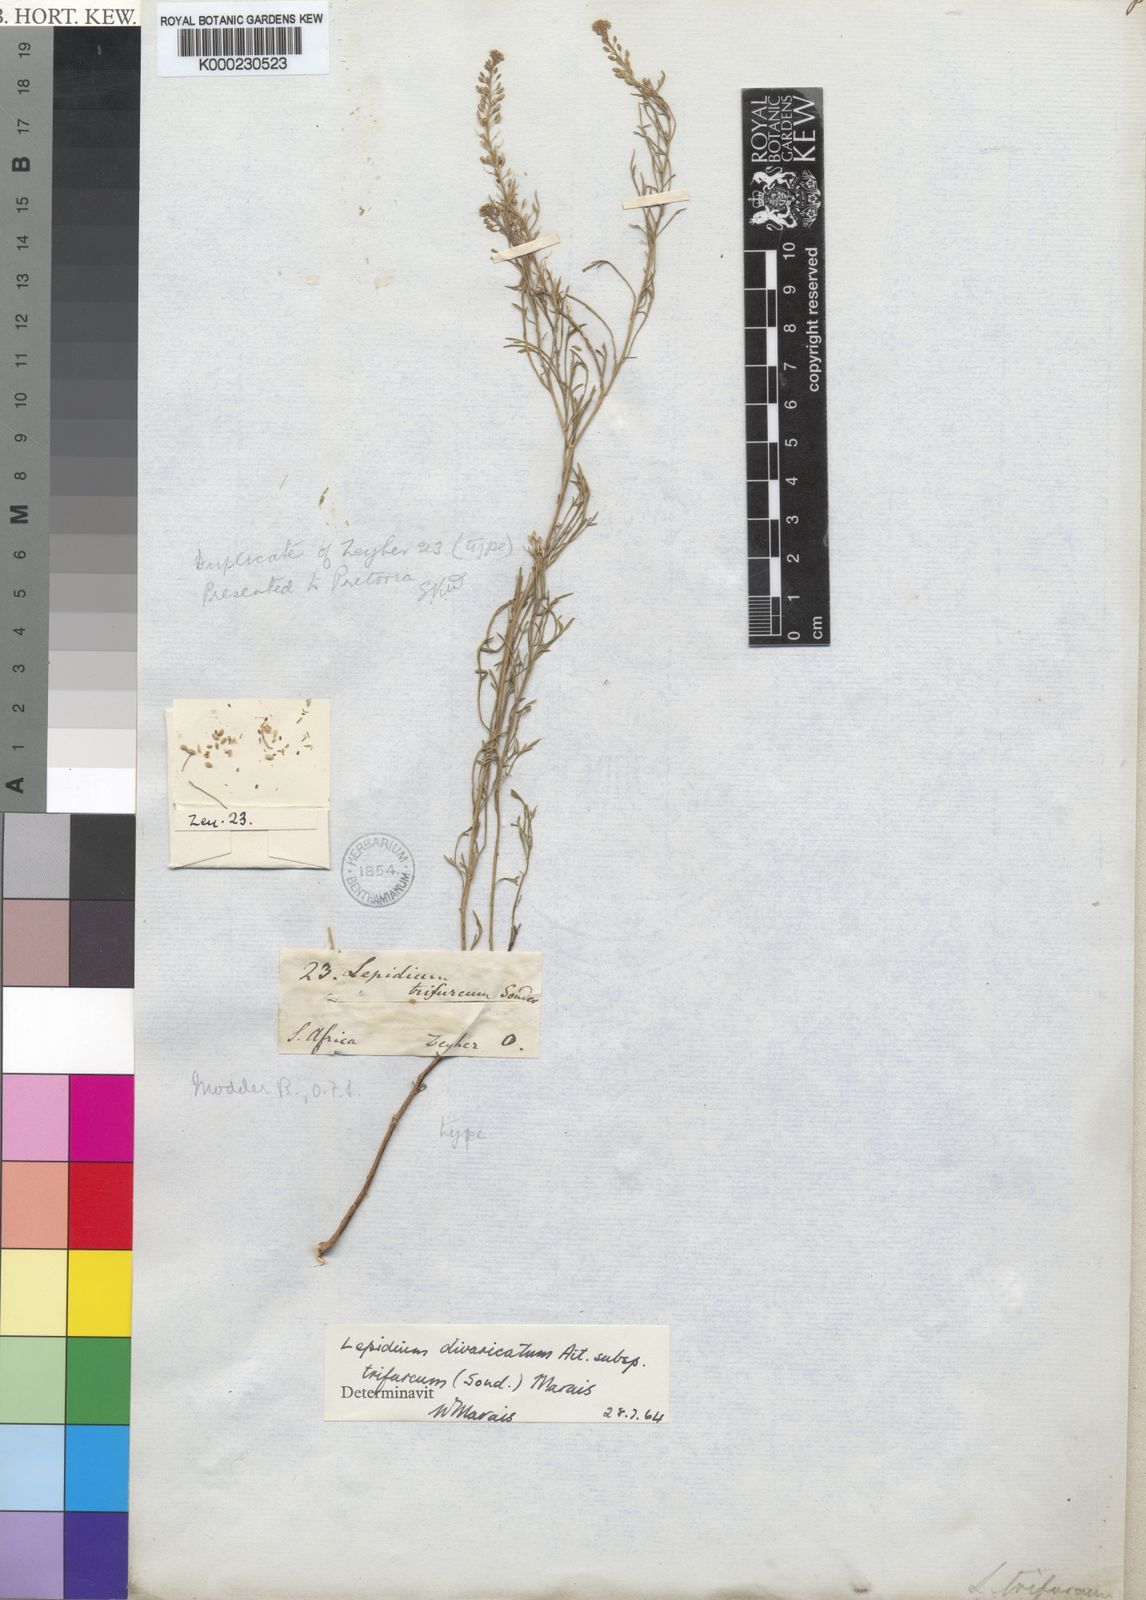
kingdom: Plantae
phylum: Tracheophyta
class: Magnoliopsida
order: Brassicales
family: Brassicaceae
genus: Lepidium
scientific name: Lepidium divaricatum
